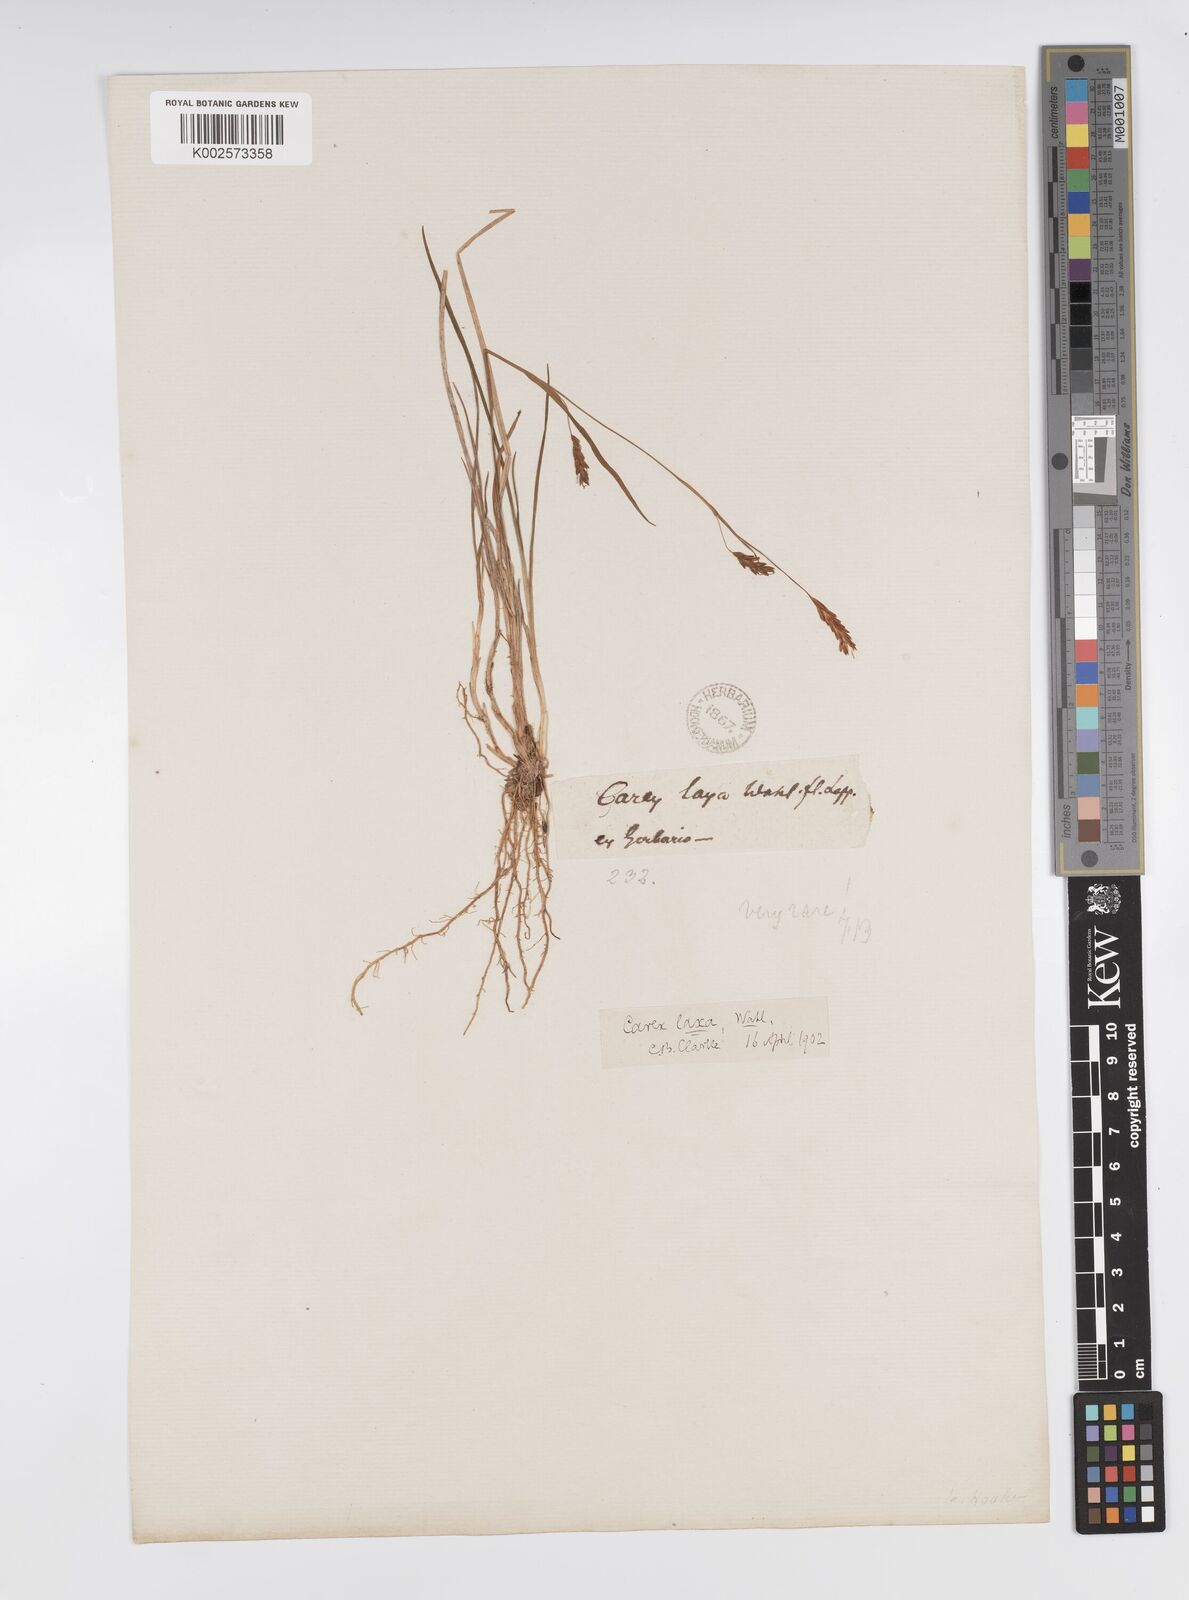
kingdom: Plantae
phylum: Tracheophyta
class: Liliopsida
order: Poales
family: Cyperaceae
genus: Carex
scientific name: Carex laxa
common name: Weak sedge
